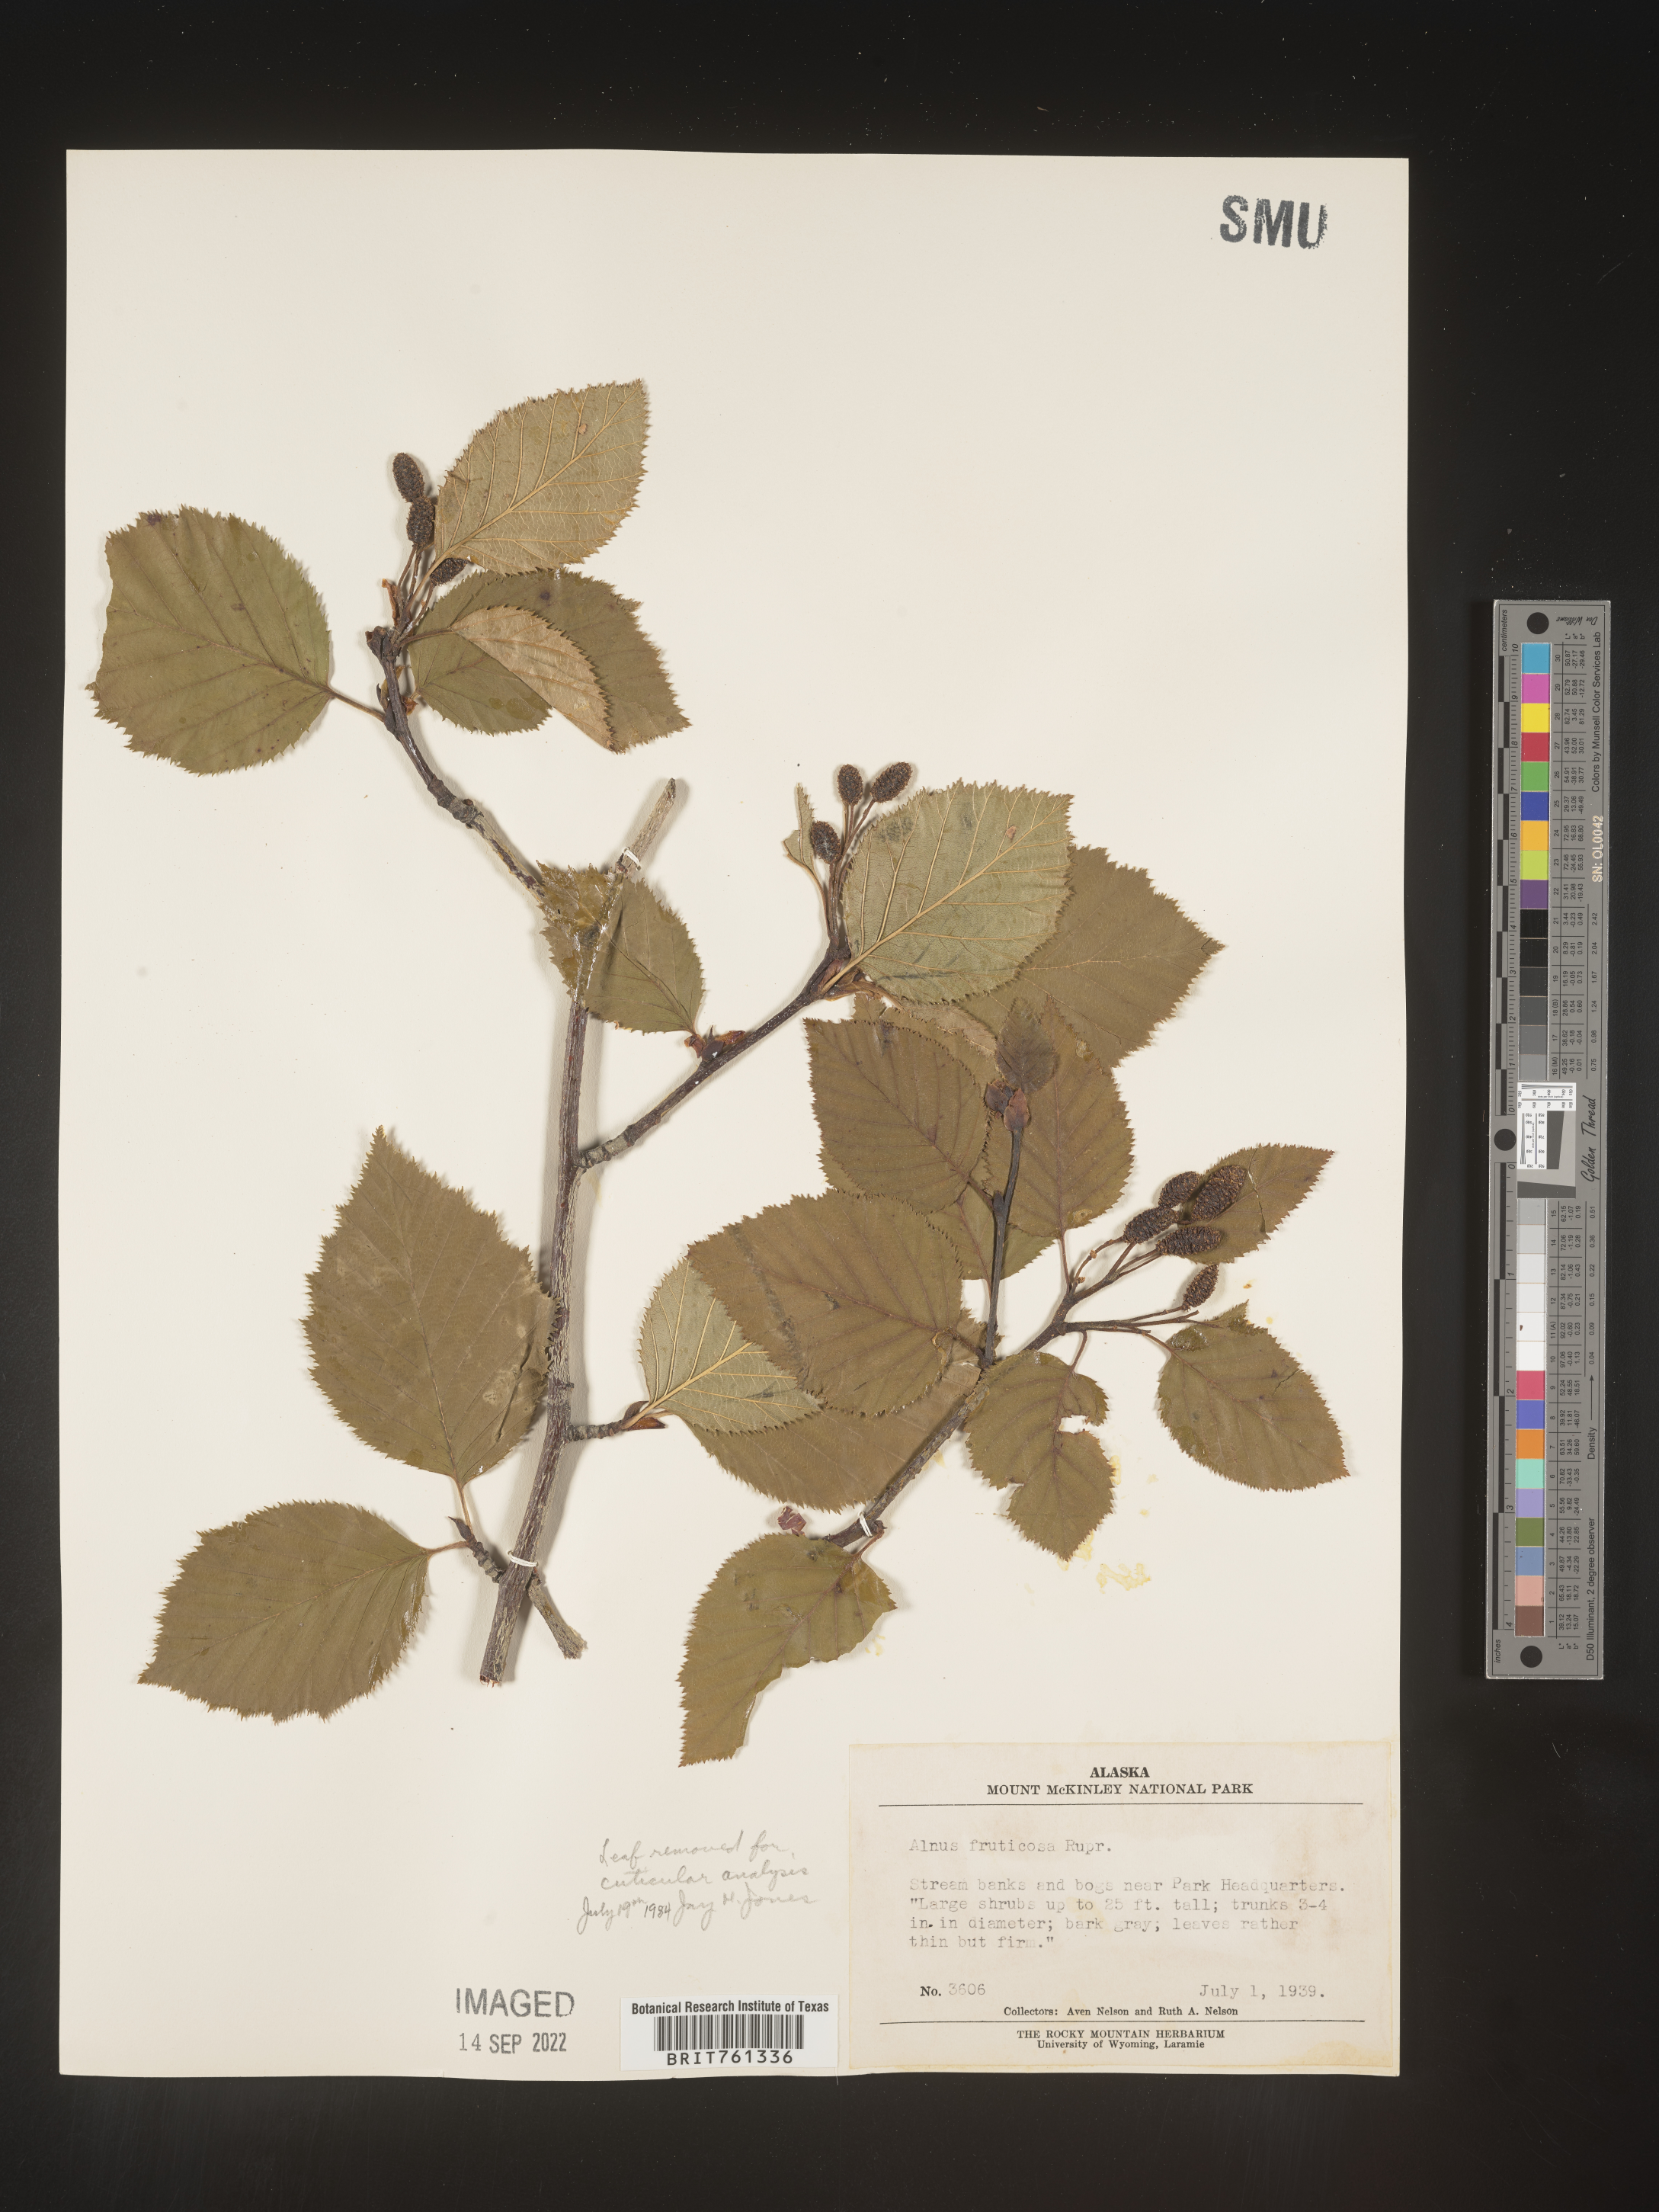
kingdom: Plantae
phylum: Tracheophyta
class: Magnoliopsida
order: Fagales
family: Betulaceae
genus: Alnus
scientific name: Alnus
